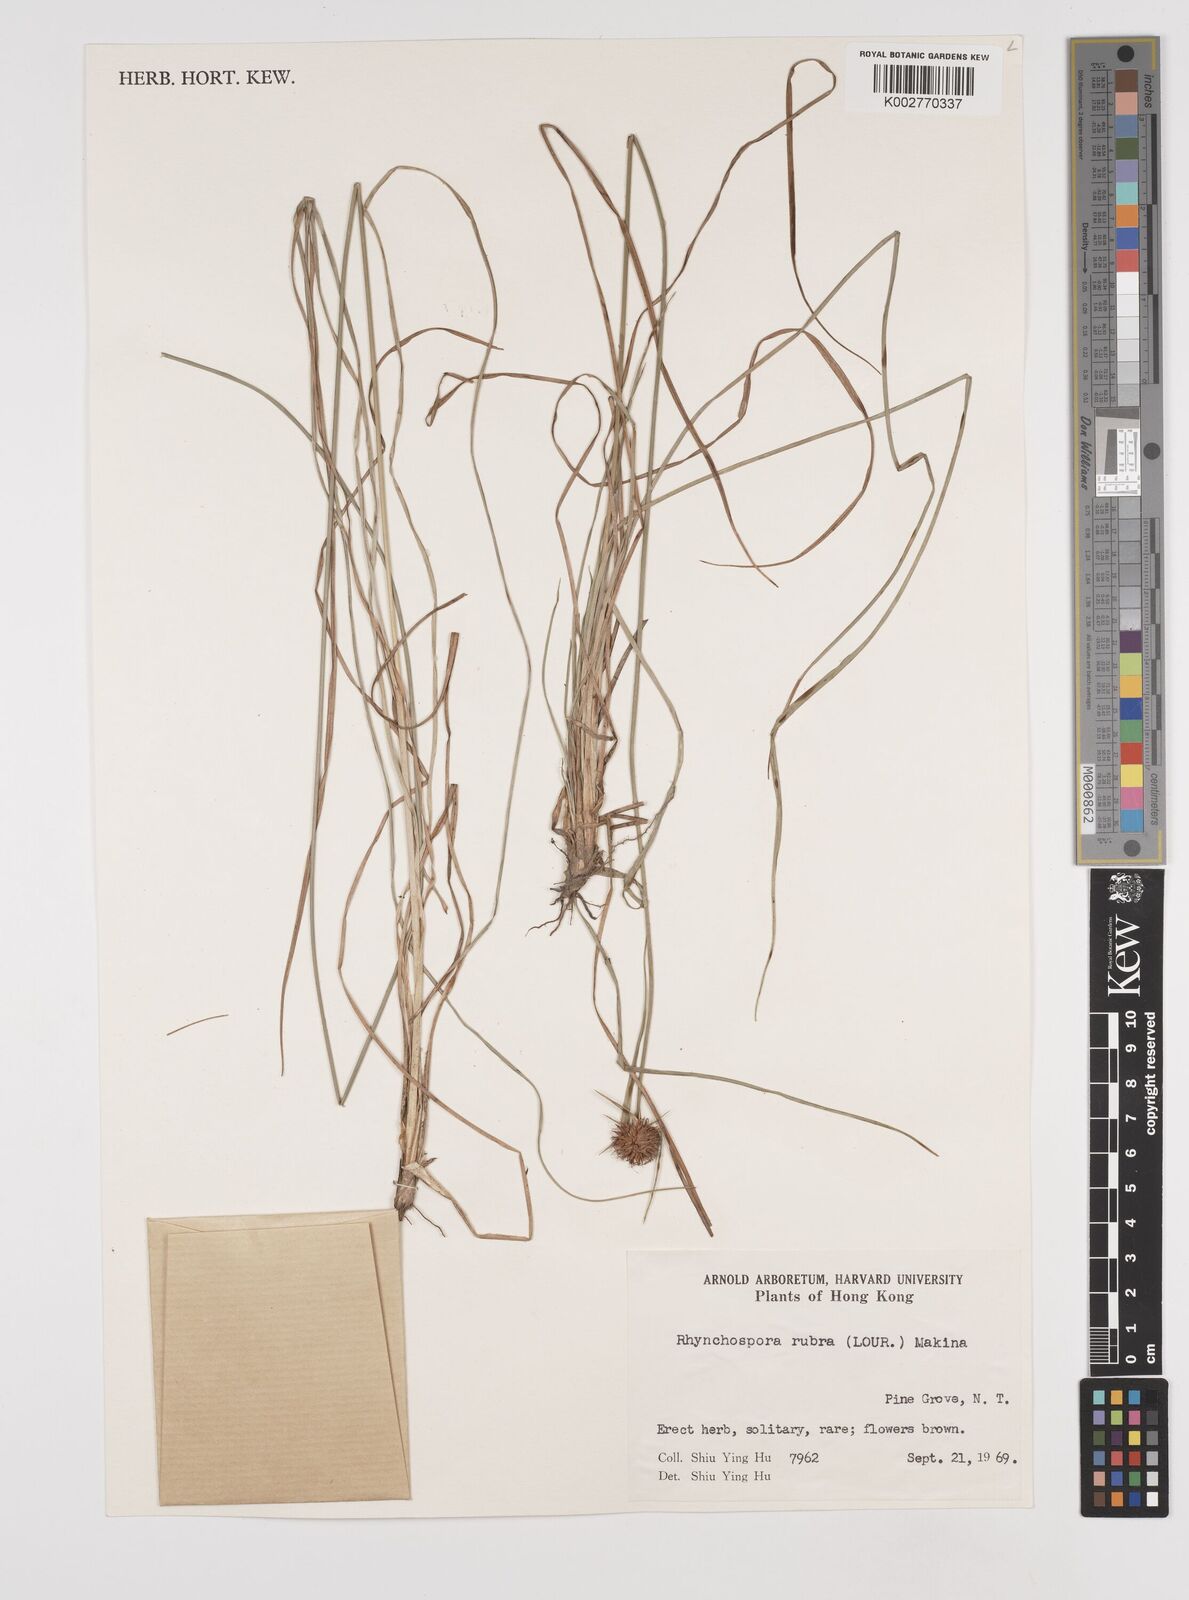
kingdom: Plantae
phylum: Tracheophyta
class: Liliopsida
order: Poales
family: Cyperaceae
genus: Rhynchospora
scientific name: Rhynchospora rubra
